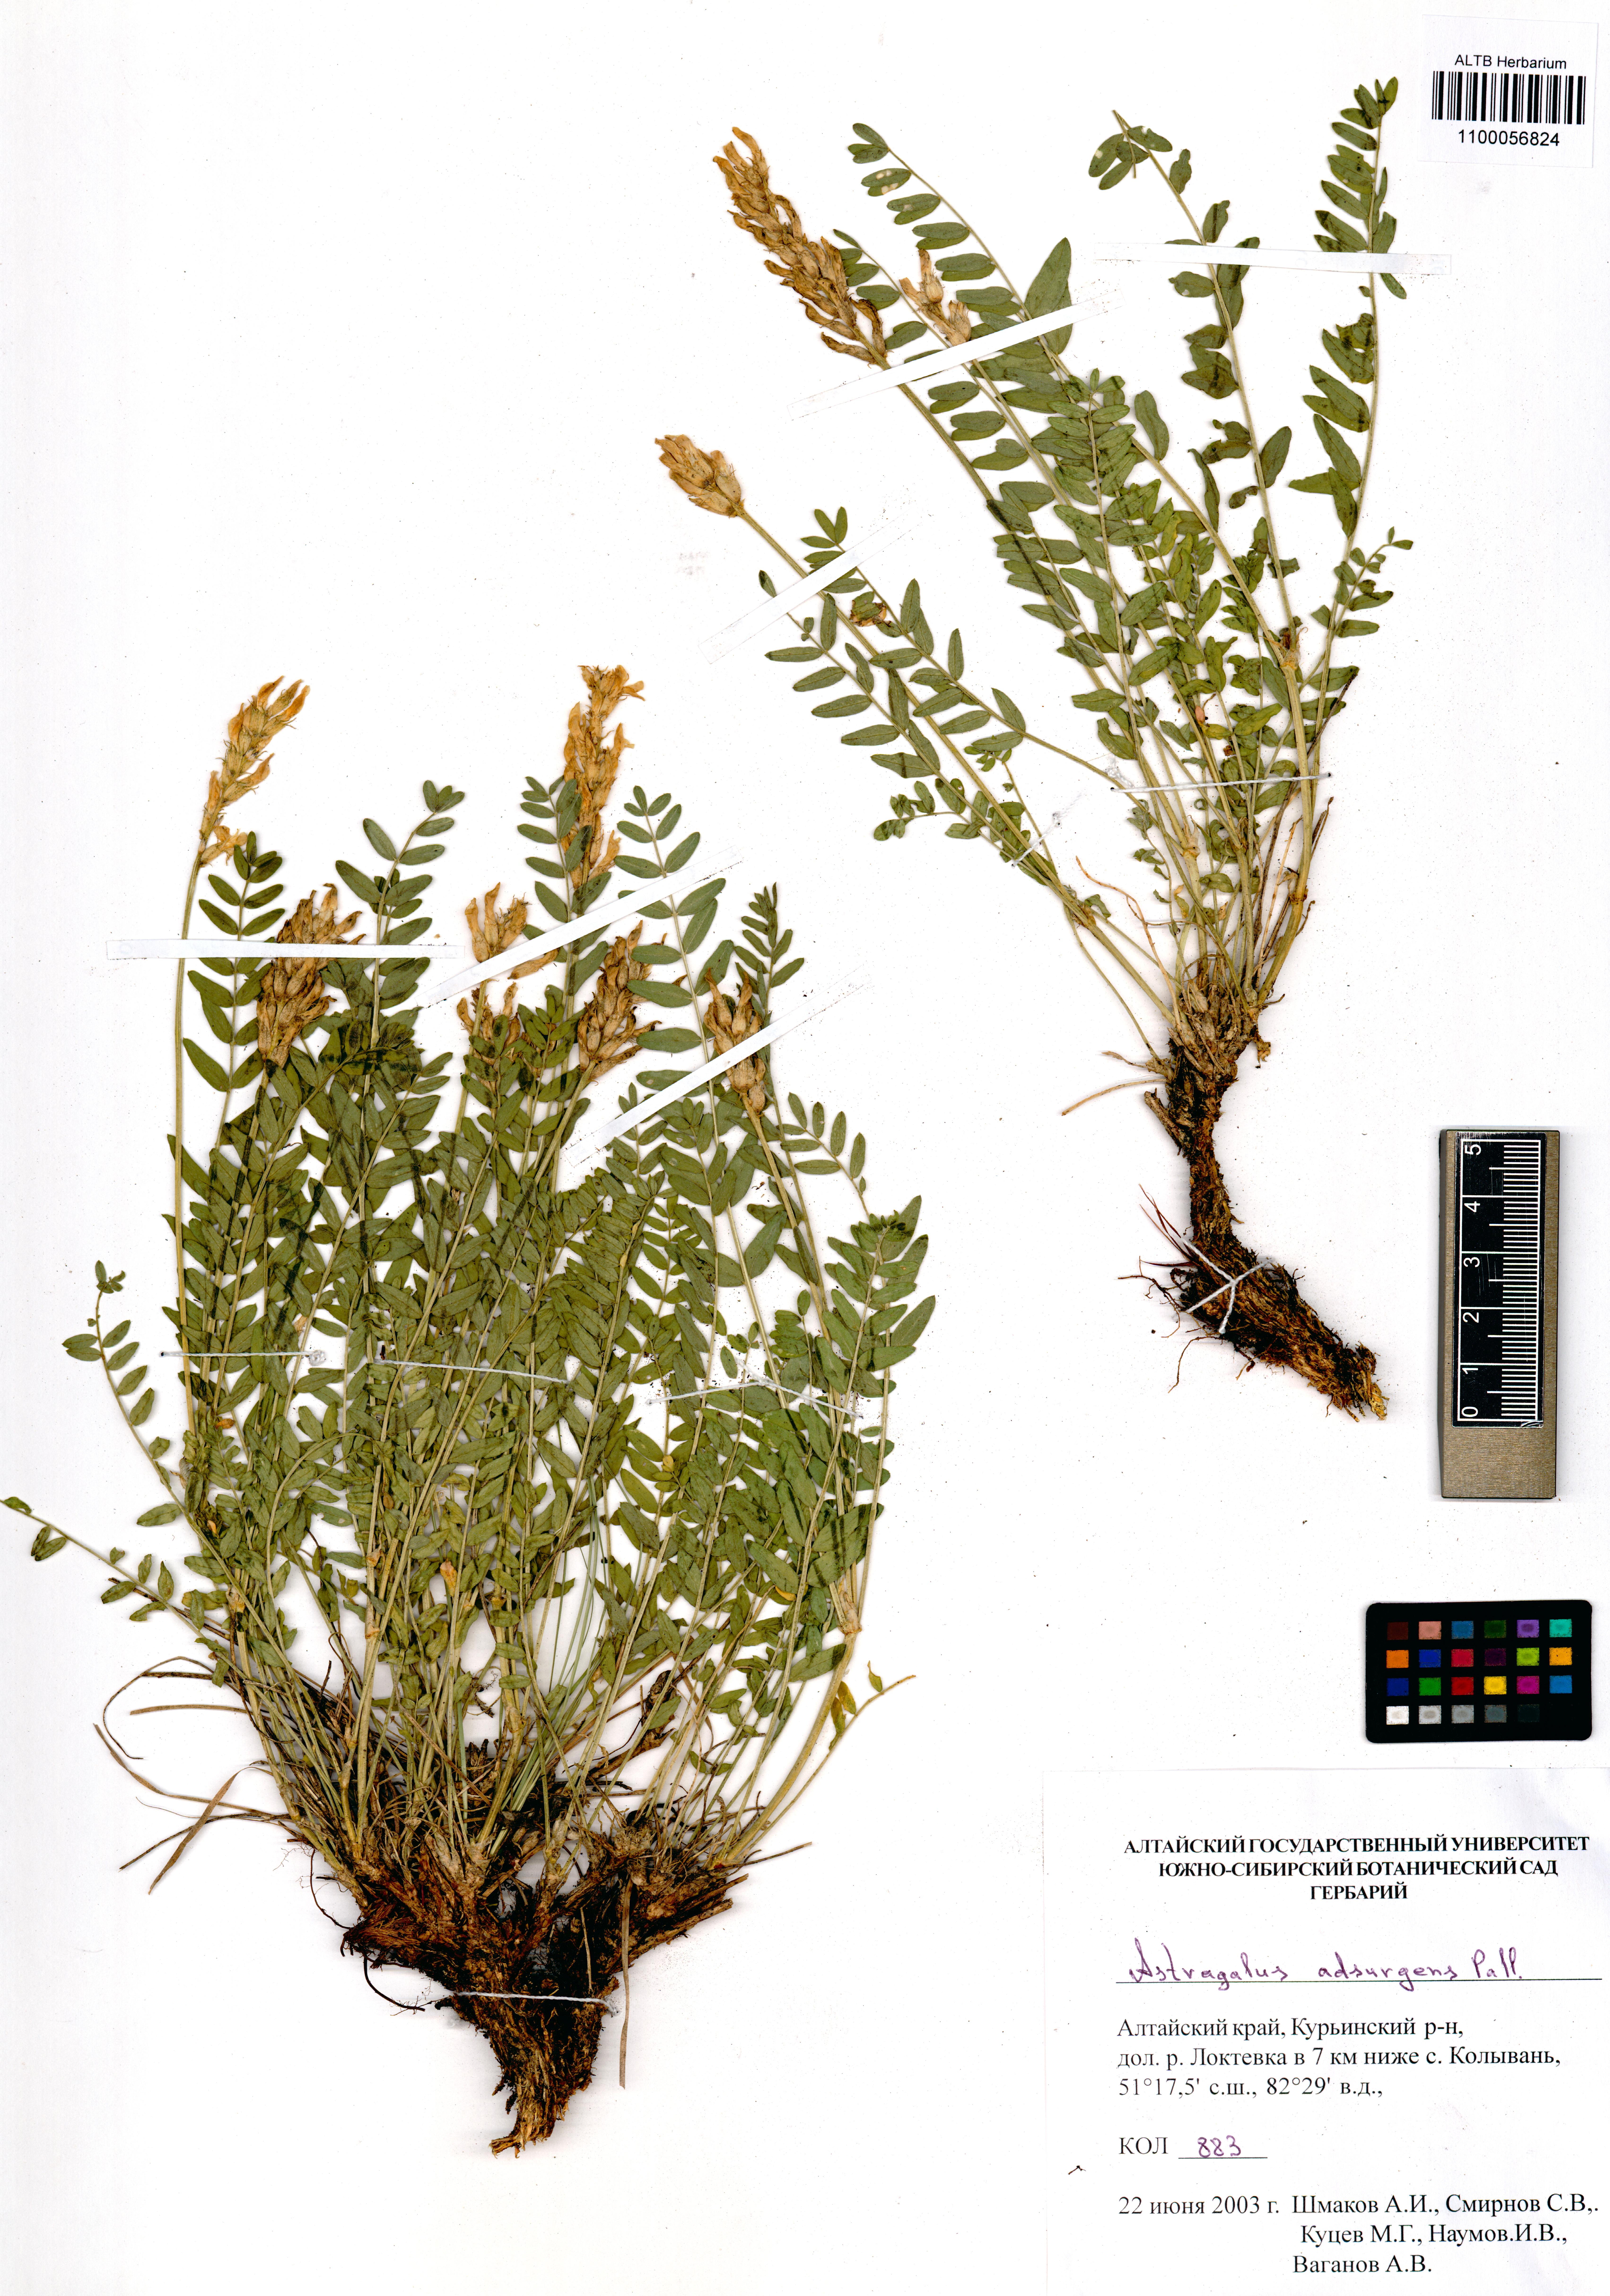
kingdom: Plantae
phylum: Tracheophyta
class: Magnoliopsida
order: Fabales
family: Fabaceae
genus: Astragalus
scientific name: Astragalus laxmannii
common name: Laxmann's milk-vetch
